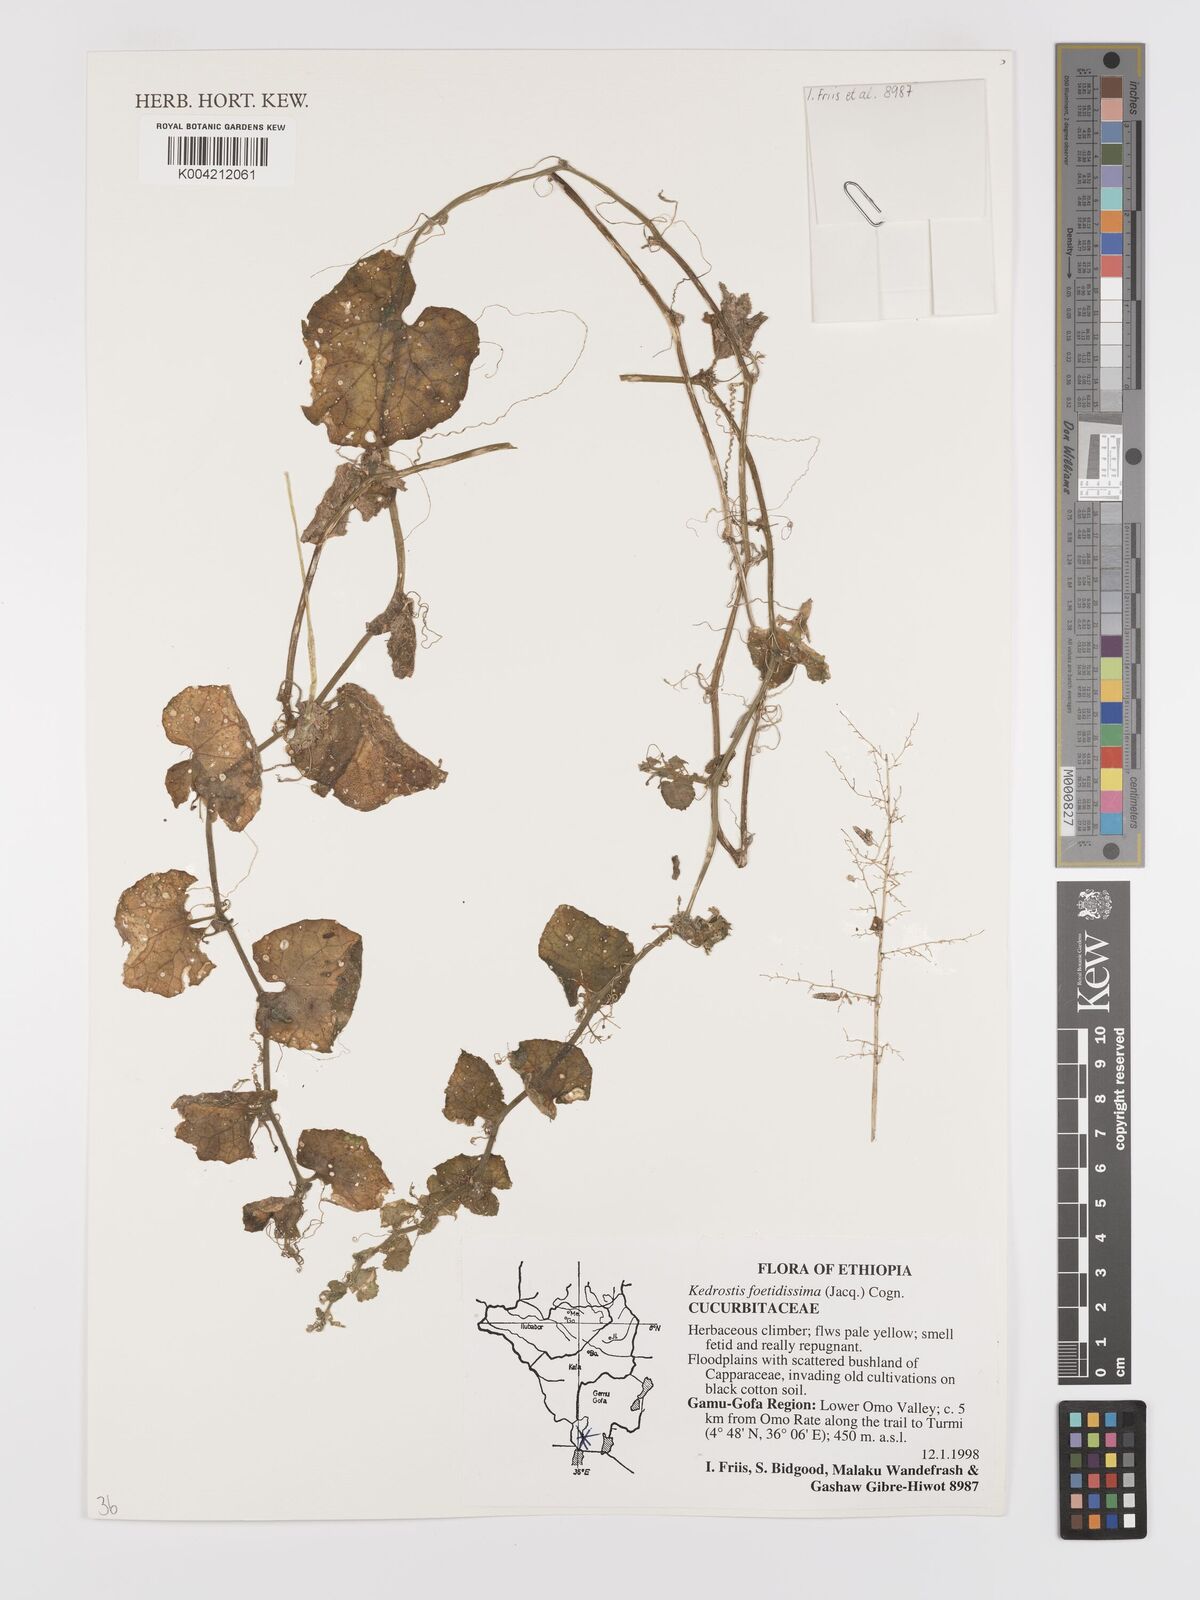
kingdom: Plantae
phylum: Tracheophyta
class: Magnoliopsida
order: Cucurbitales
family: Cucurbitaceae
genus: Kedrostis
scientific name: Kedrostis foetidissima
